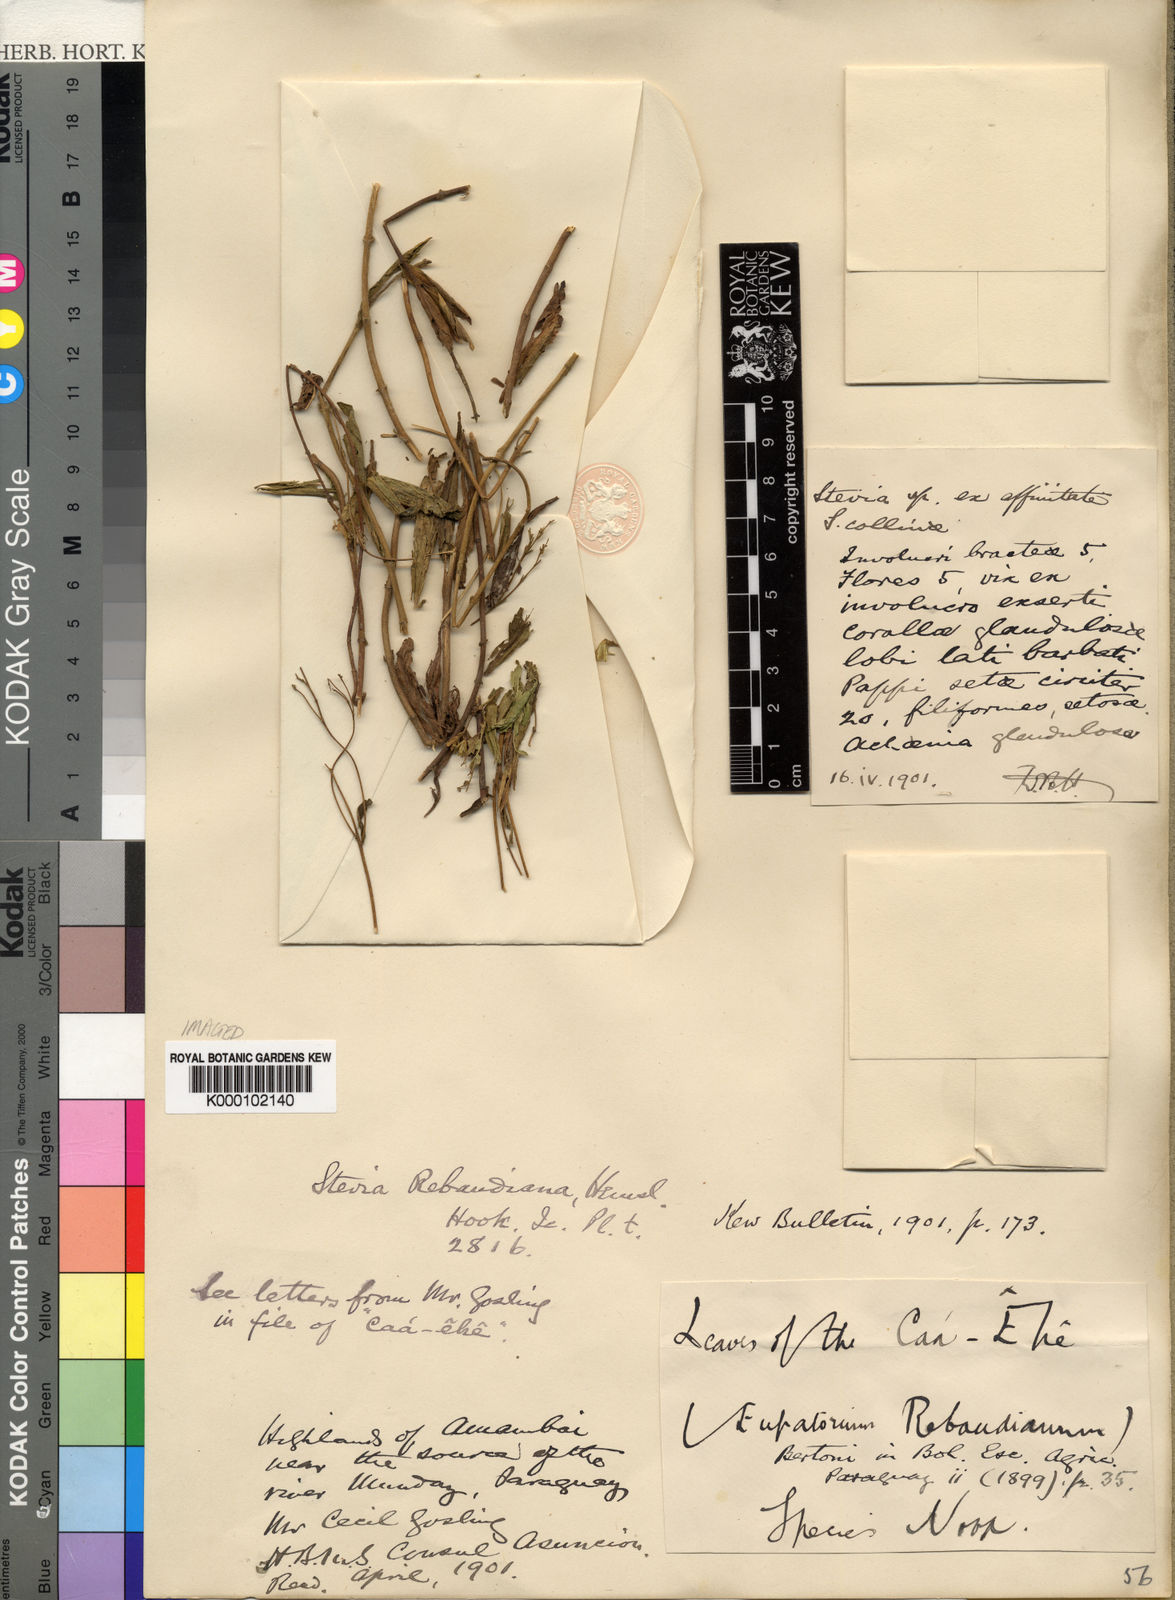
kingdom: Plantae
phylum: Tracheophyta
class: Magnoliopsida
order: Asterales
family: Asteraceae
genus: Stevia
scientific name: Stevia
